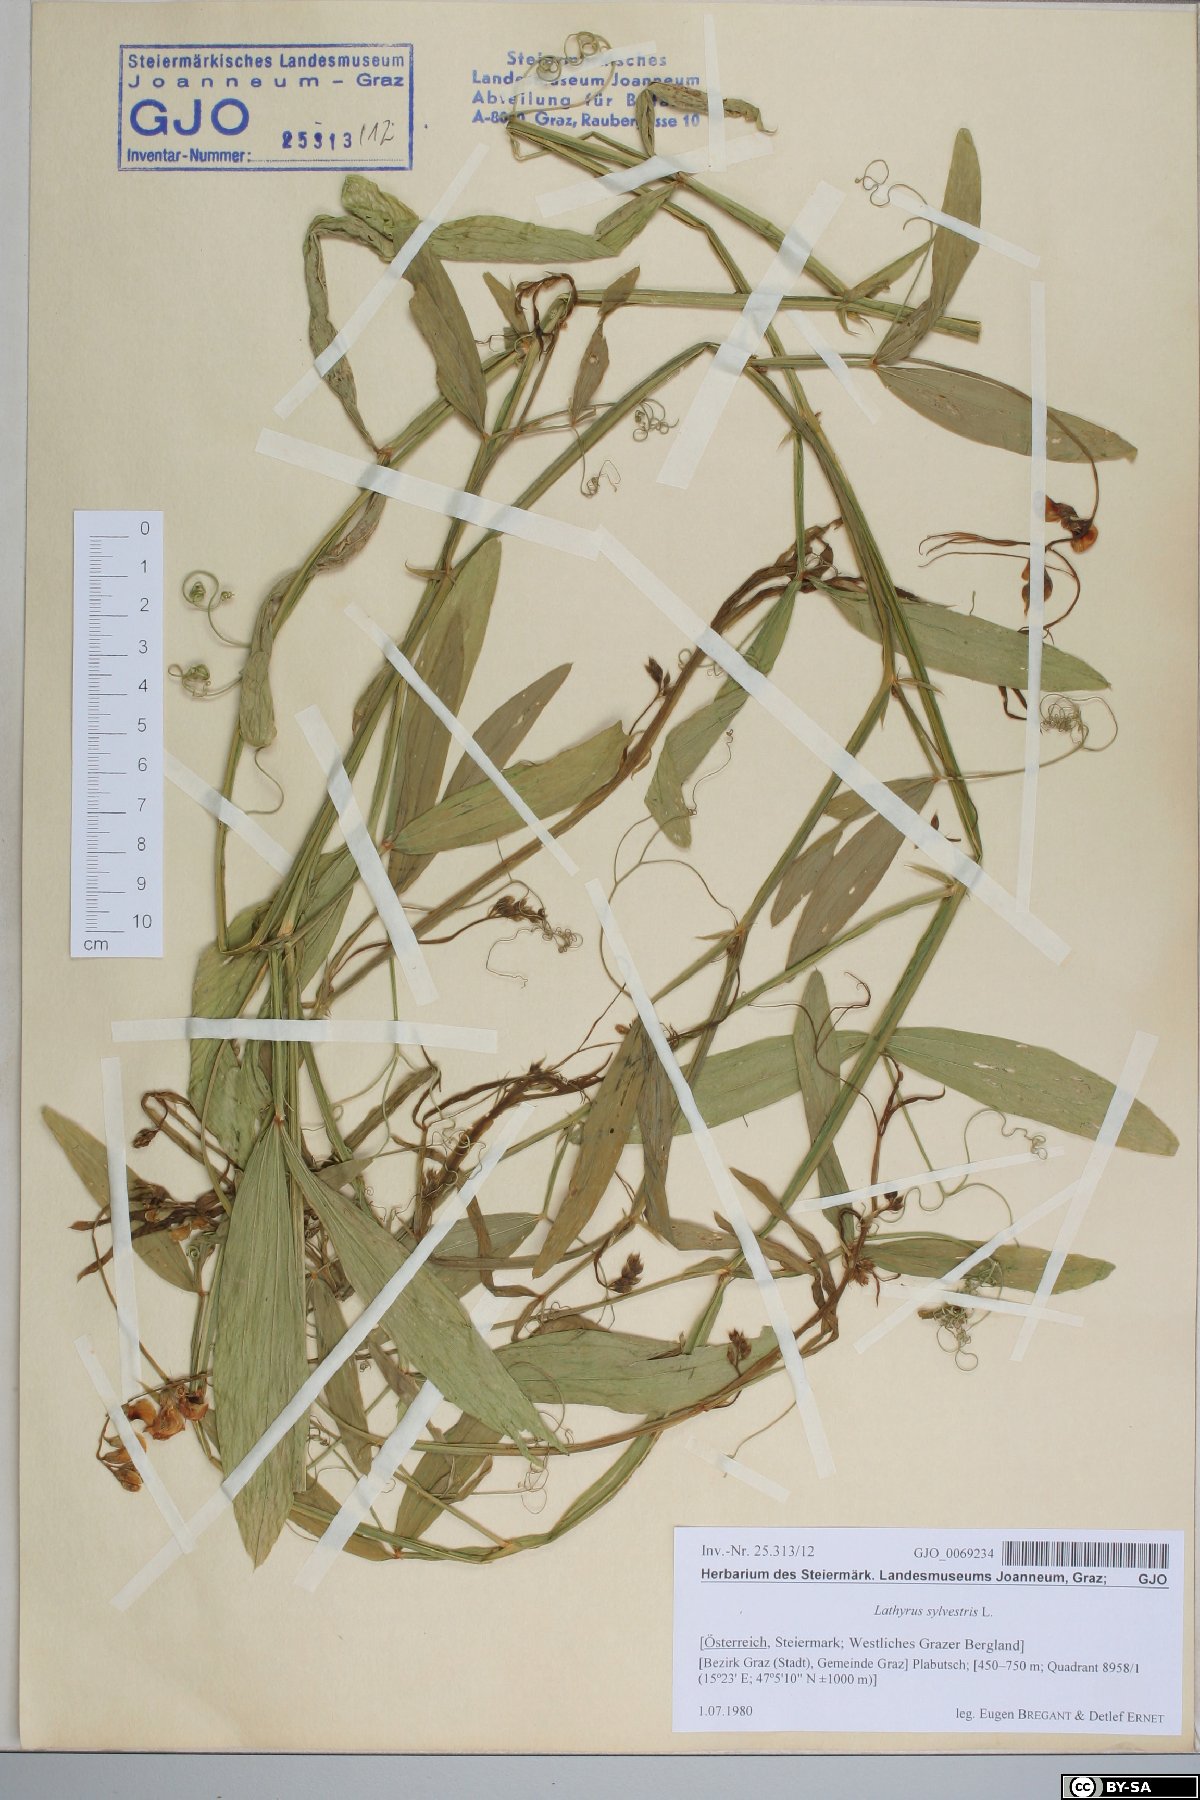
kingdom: Plantae
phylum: Tracheophyta
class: Magnoliopsida
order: Fabales
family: Fabaceae
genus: Lathyrus
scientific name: Lathyrus sylvestris
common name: Flat pea
